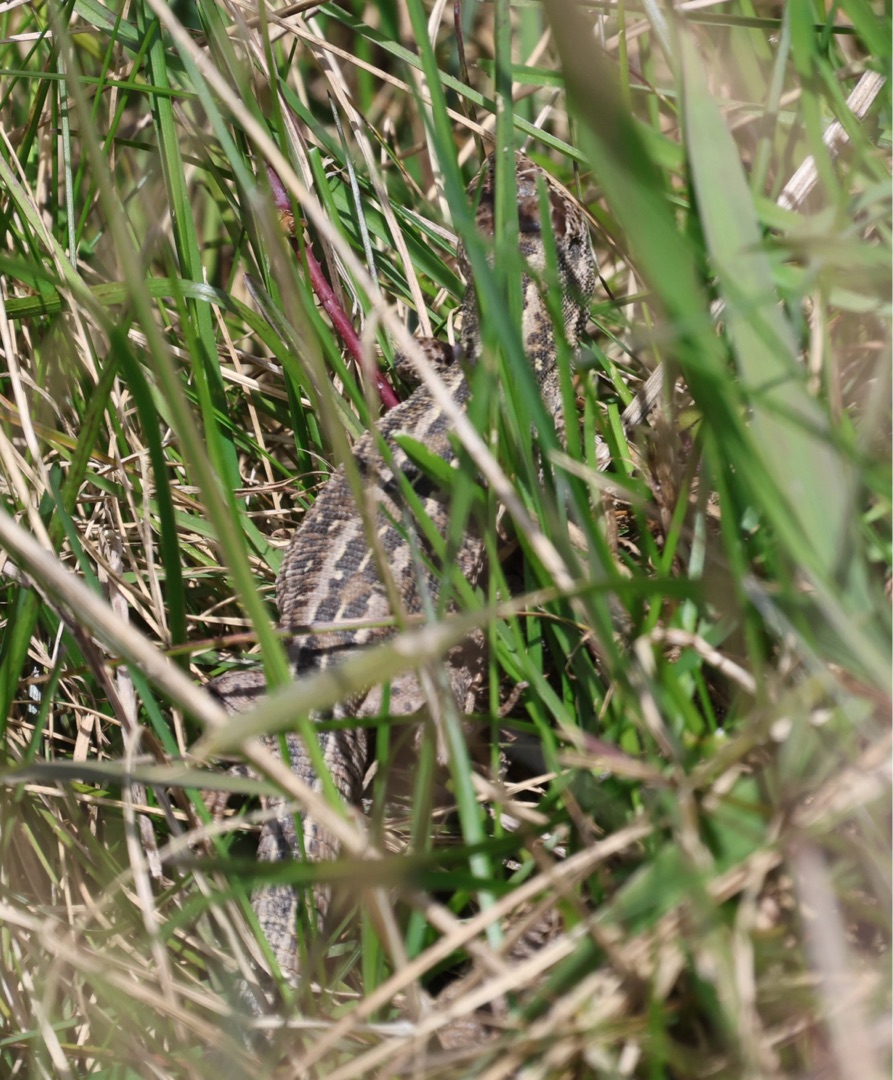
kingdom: Animalia
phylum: Chordata
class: Squamata
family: Lacertidae
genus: Lacerta
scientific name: Lacerta agilis
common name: Markfirben
